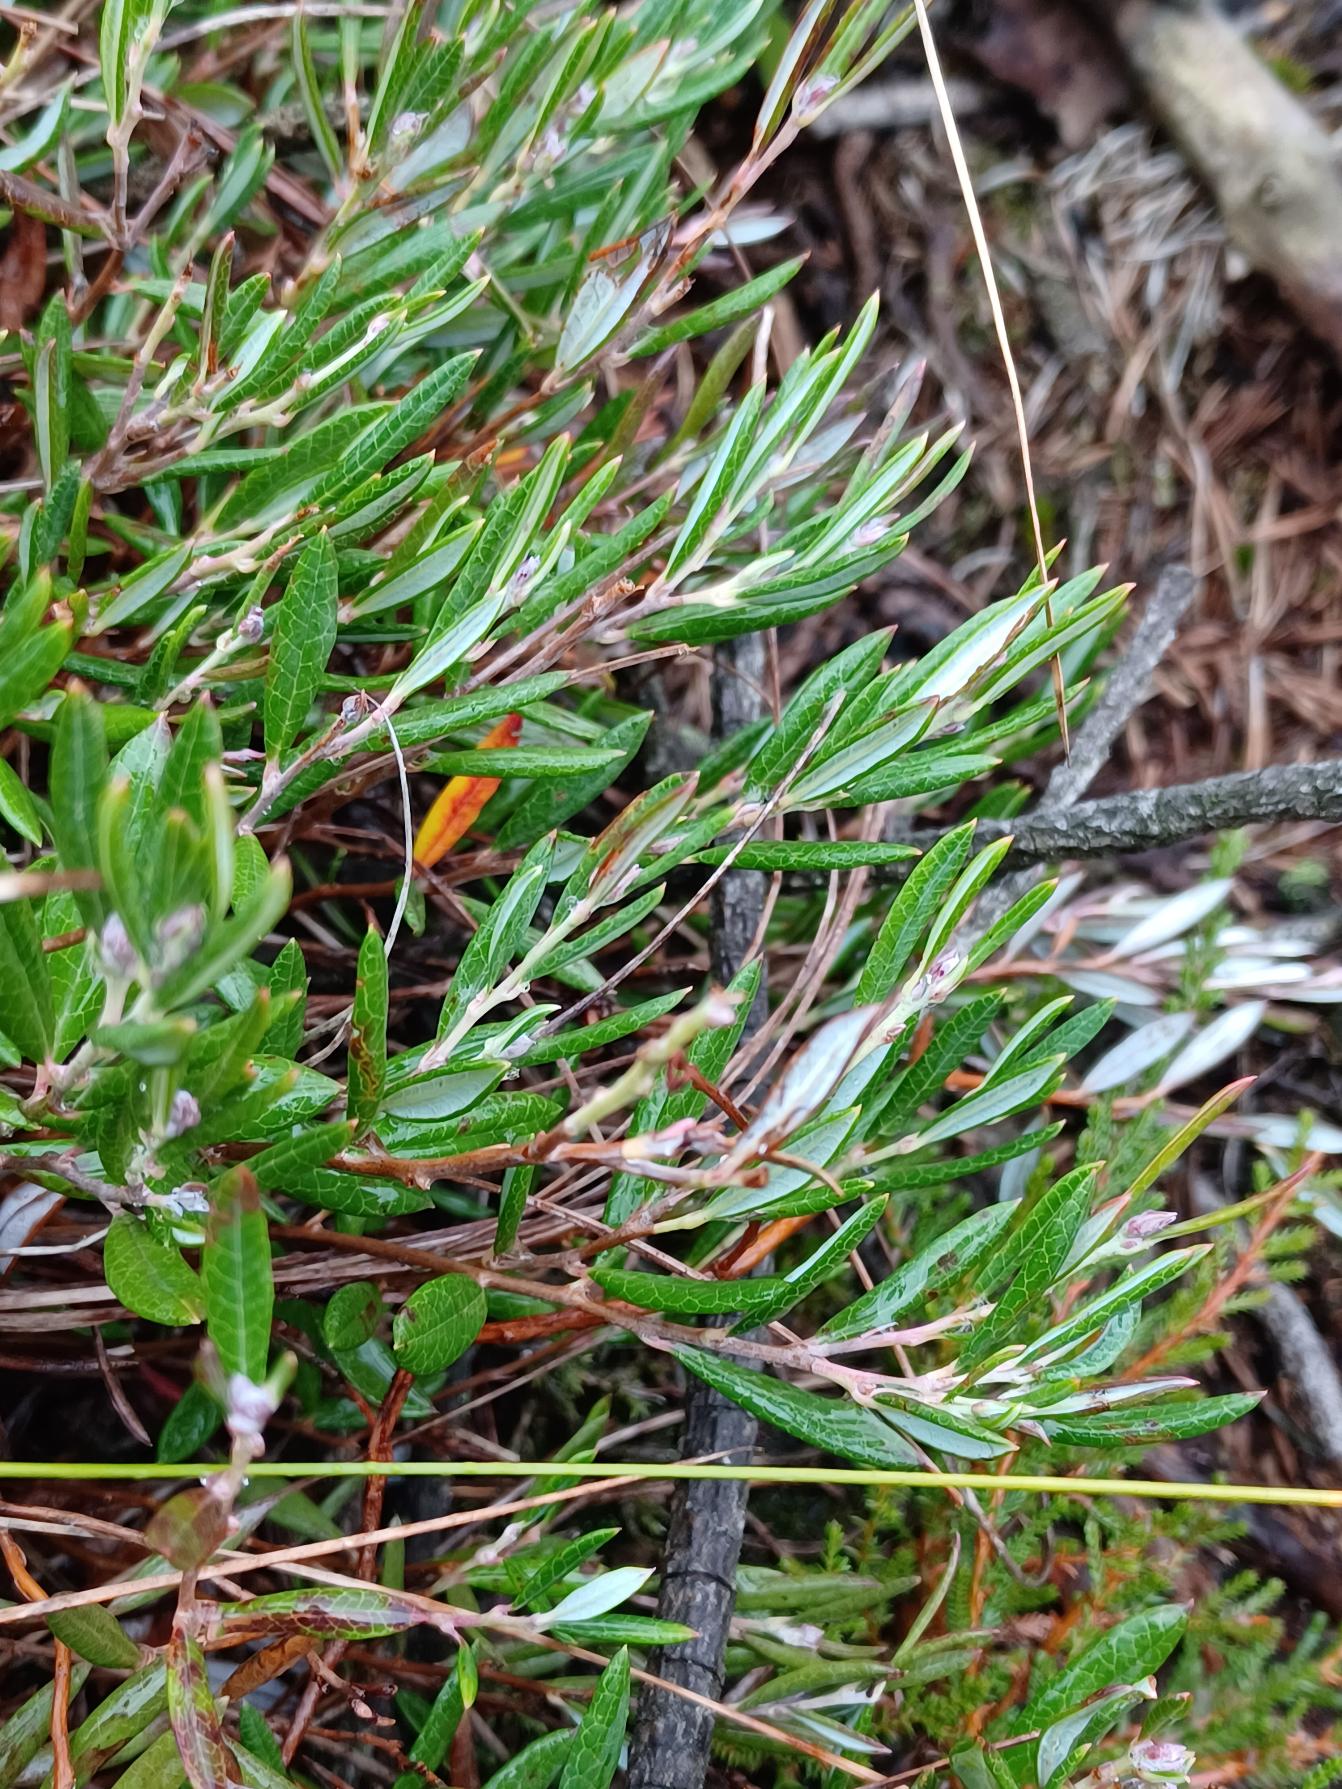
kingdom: Plantae
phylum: Tracheophyta
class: Magnoliopsida
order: Ericales
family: Ericaceae
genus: Andromeda
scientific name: Andromeda polifolia
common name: Rosmarinlyng
